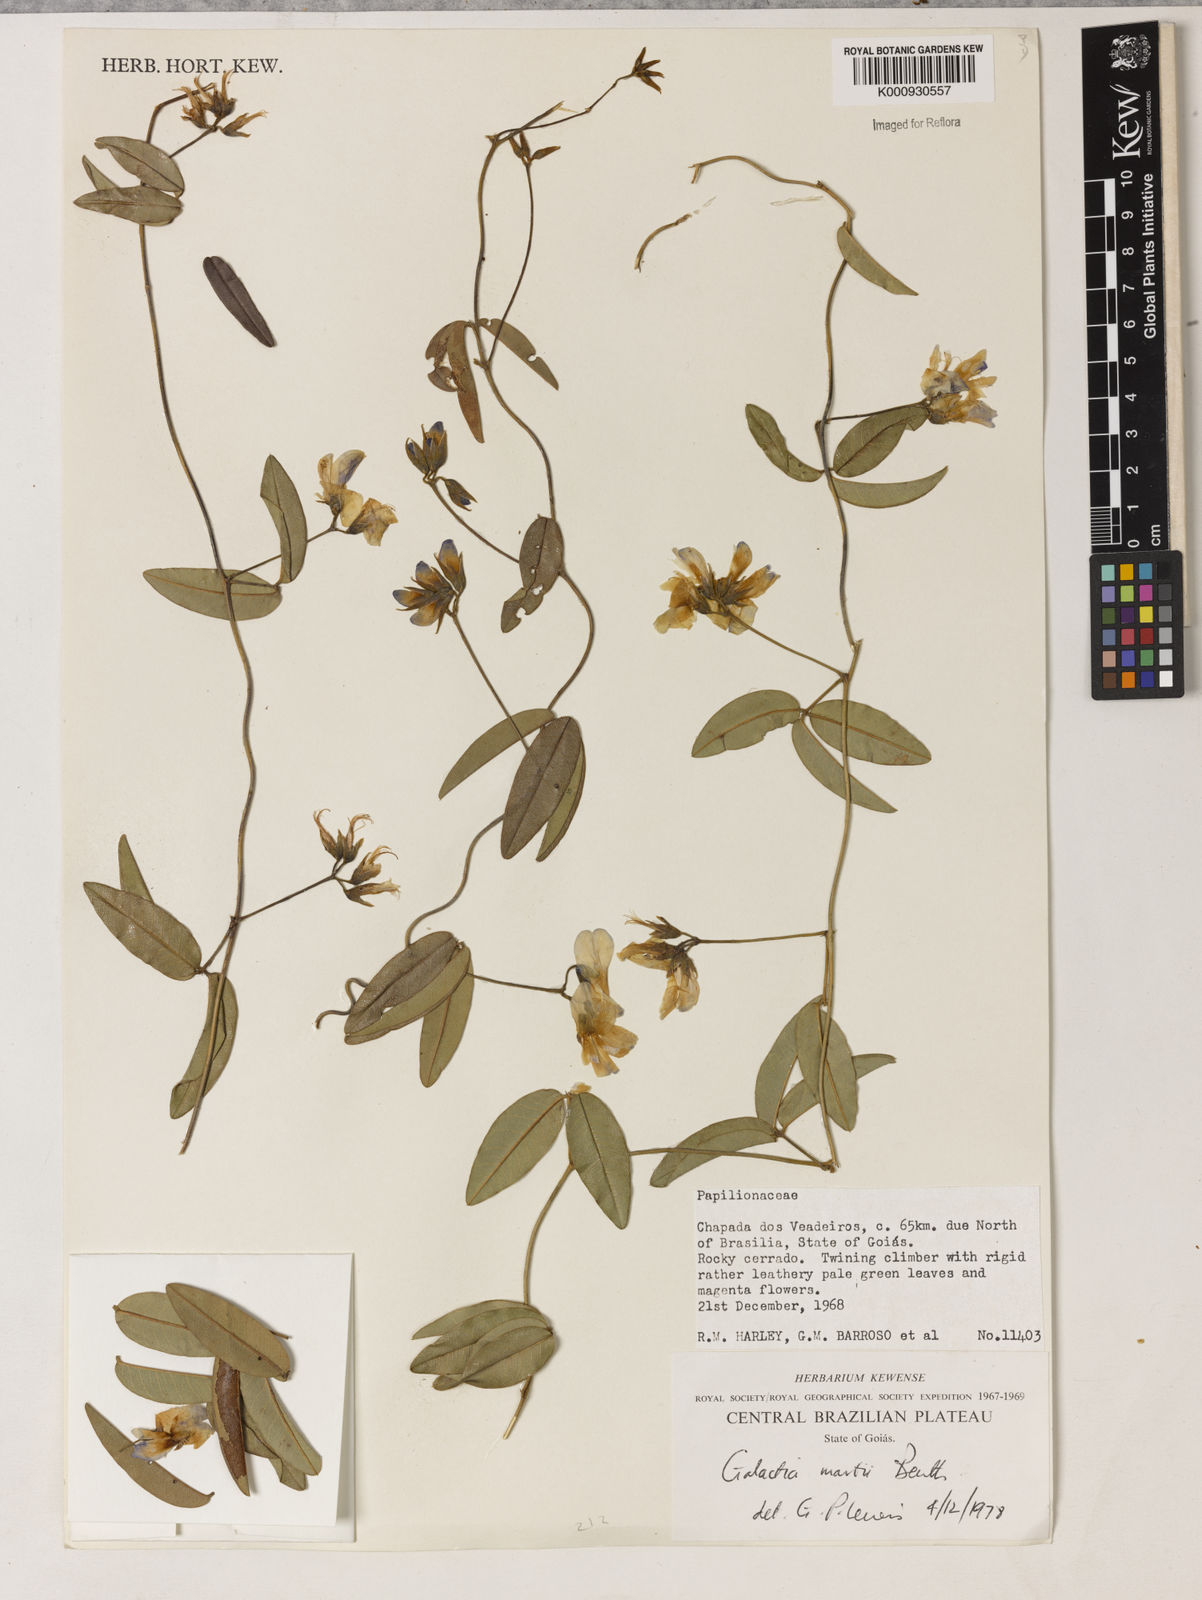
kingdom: Plantae
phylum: Tracheophyta
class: Magnoliopsida
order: Fabales
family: Fabaceae
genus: Betencourtia
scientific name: Betencourtia martii
